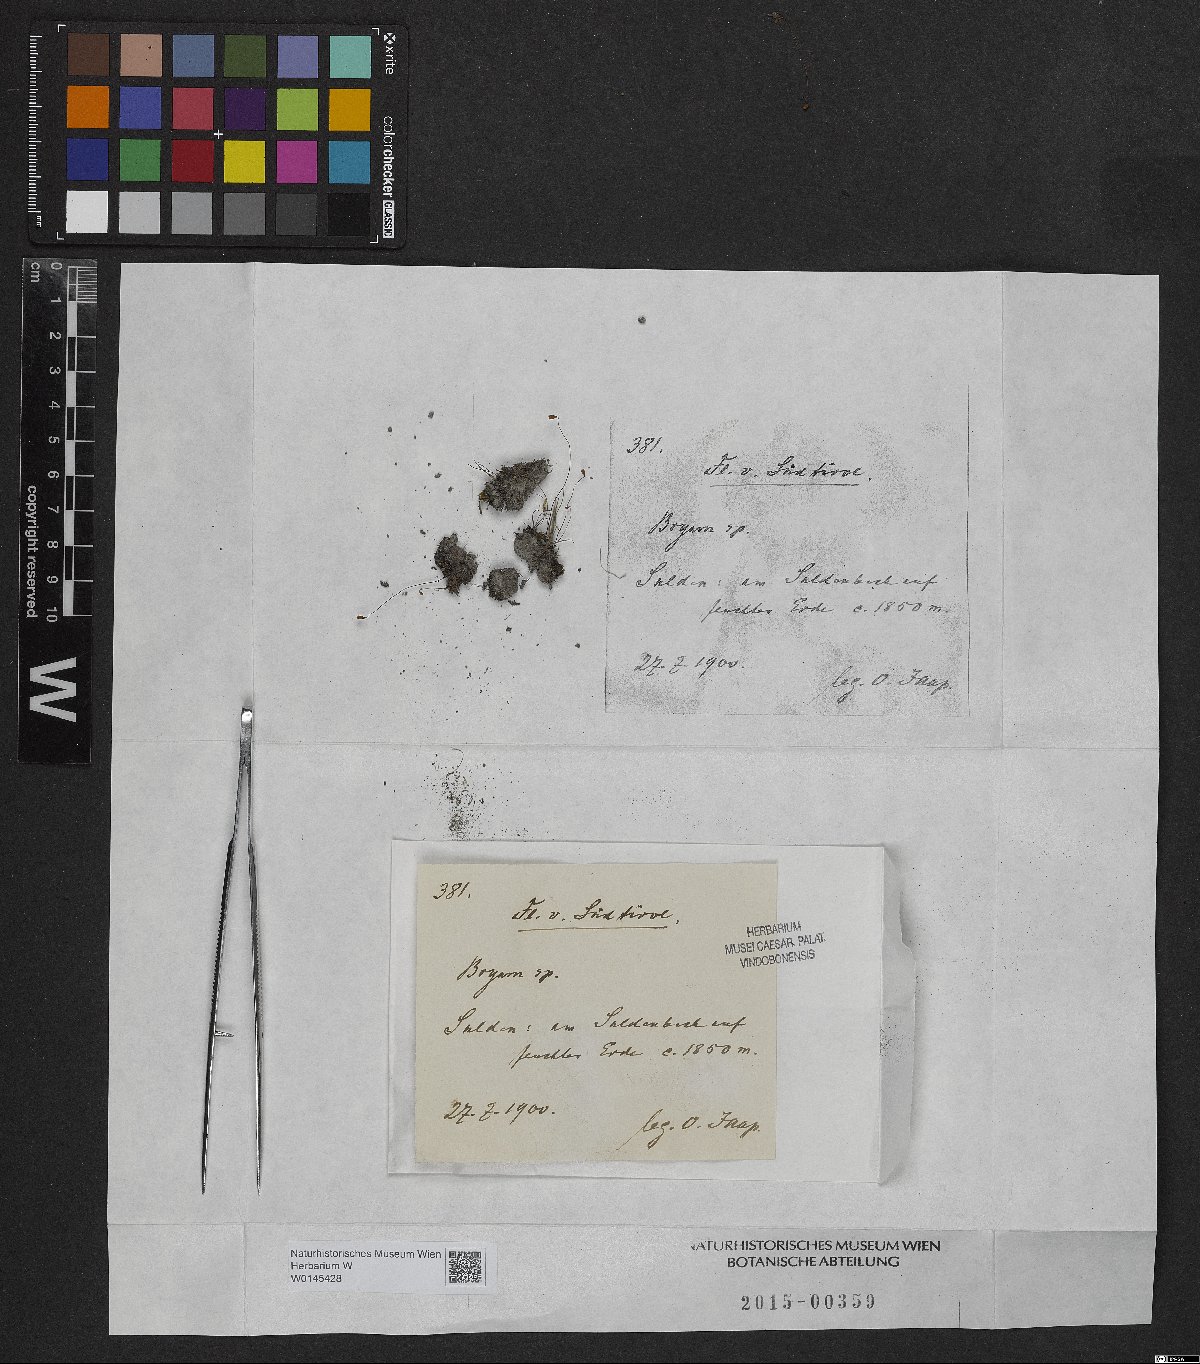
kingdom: Plantae
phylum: Bryophyta
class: Bryopsida
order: Bryales
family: Bryaceae
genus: Bryum
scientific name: Bryum
